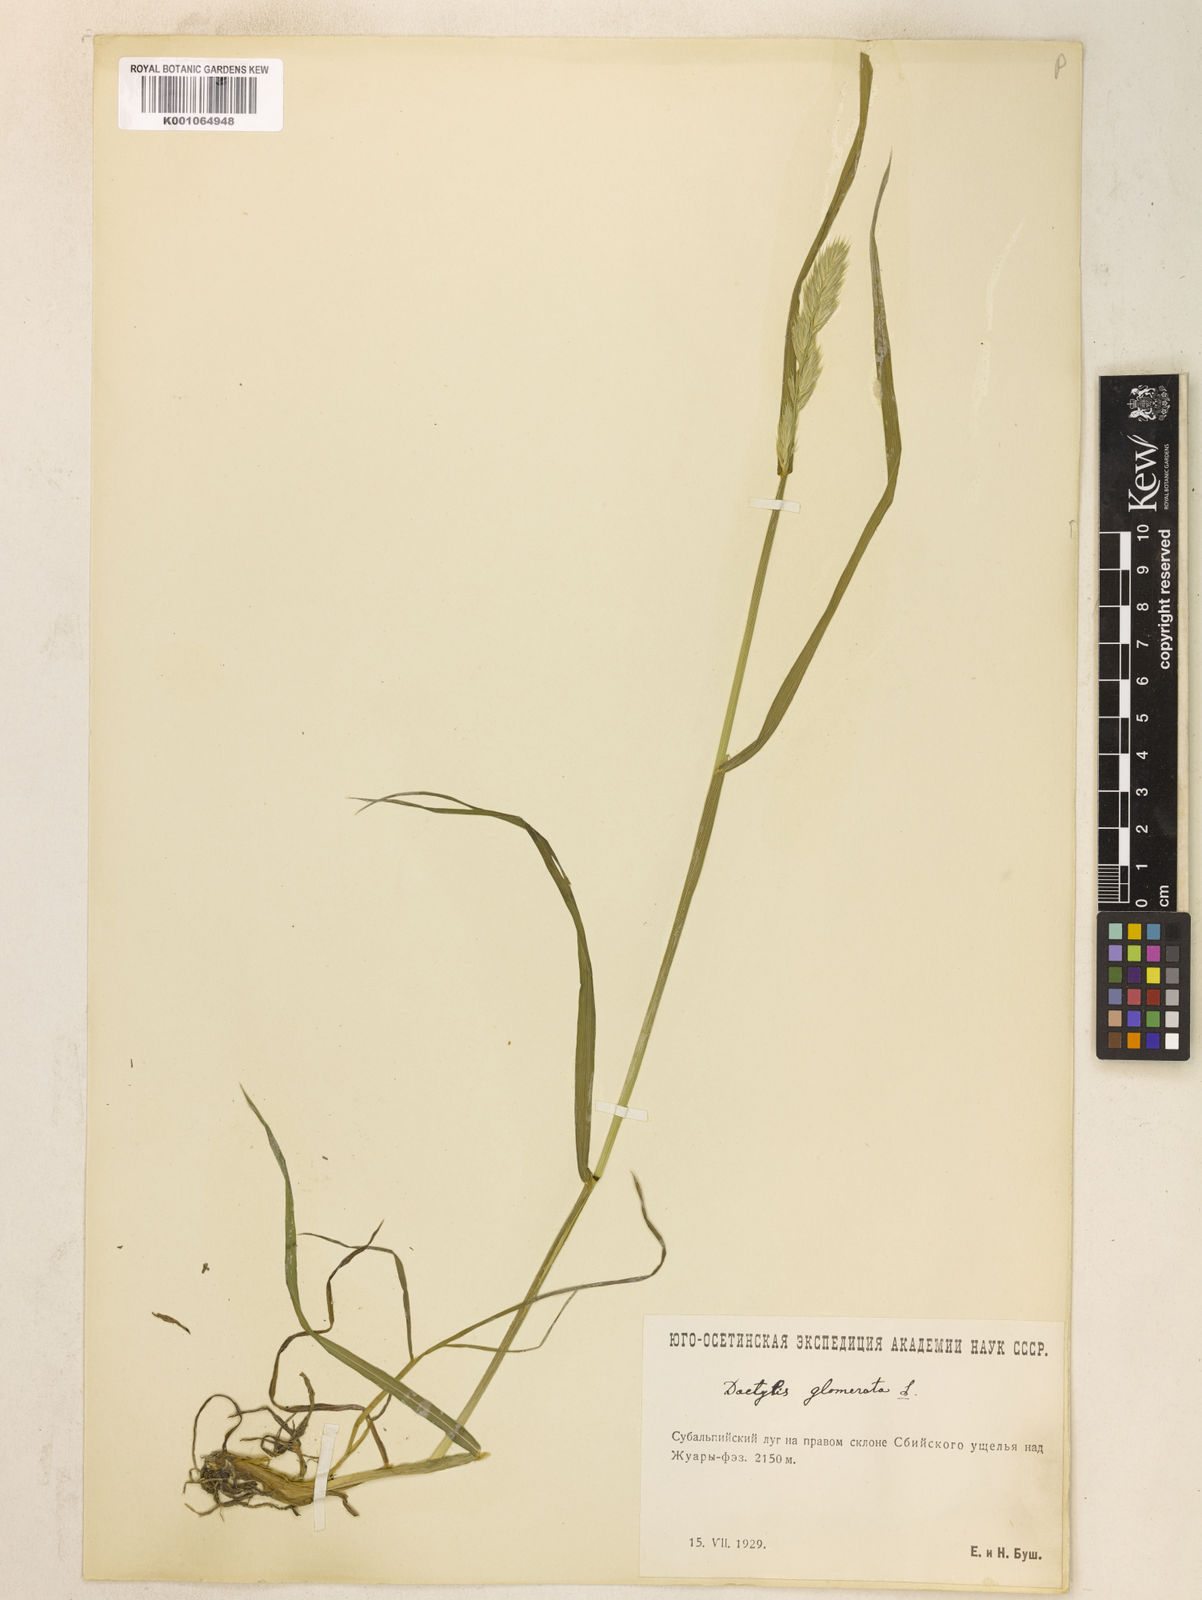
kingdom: Plantae
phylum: Tracheophyta
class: Liliopsida
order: Poales
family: Poaceae
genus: Dactylis
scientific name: Dactylis glomerata
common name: Orchardgrass
